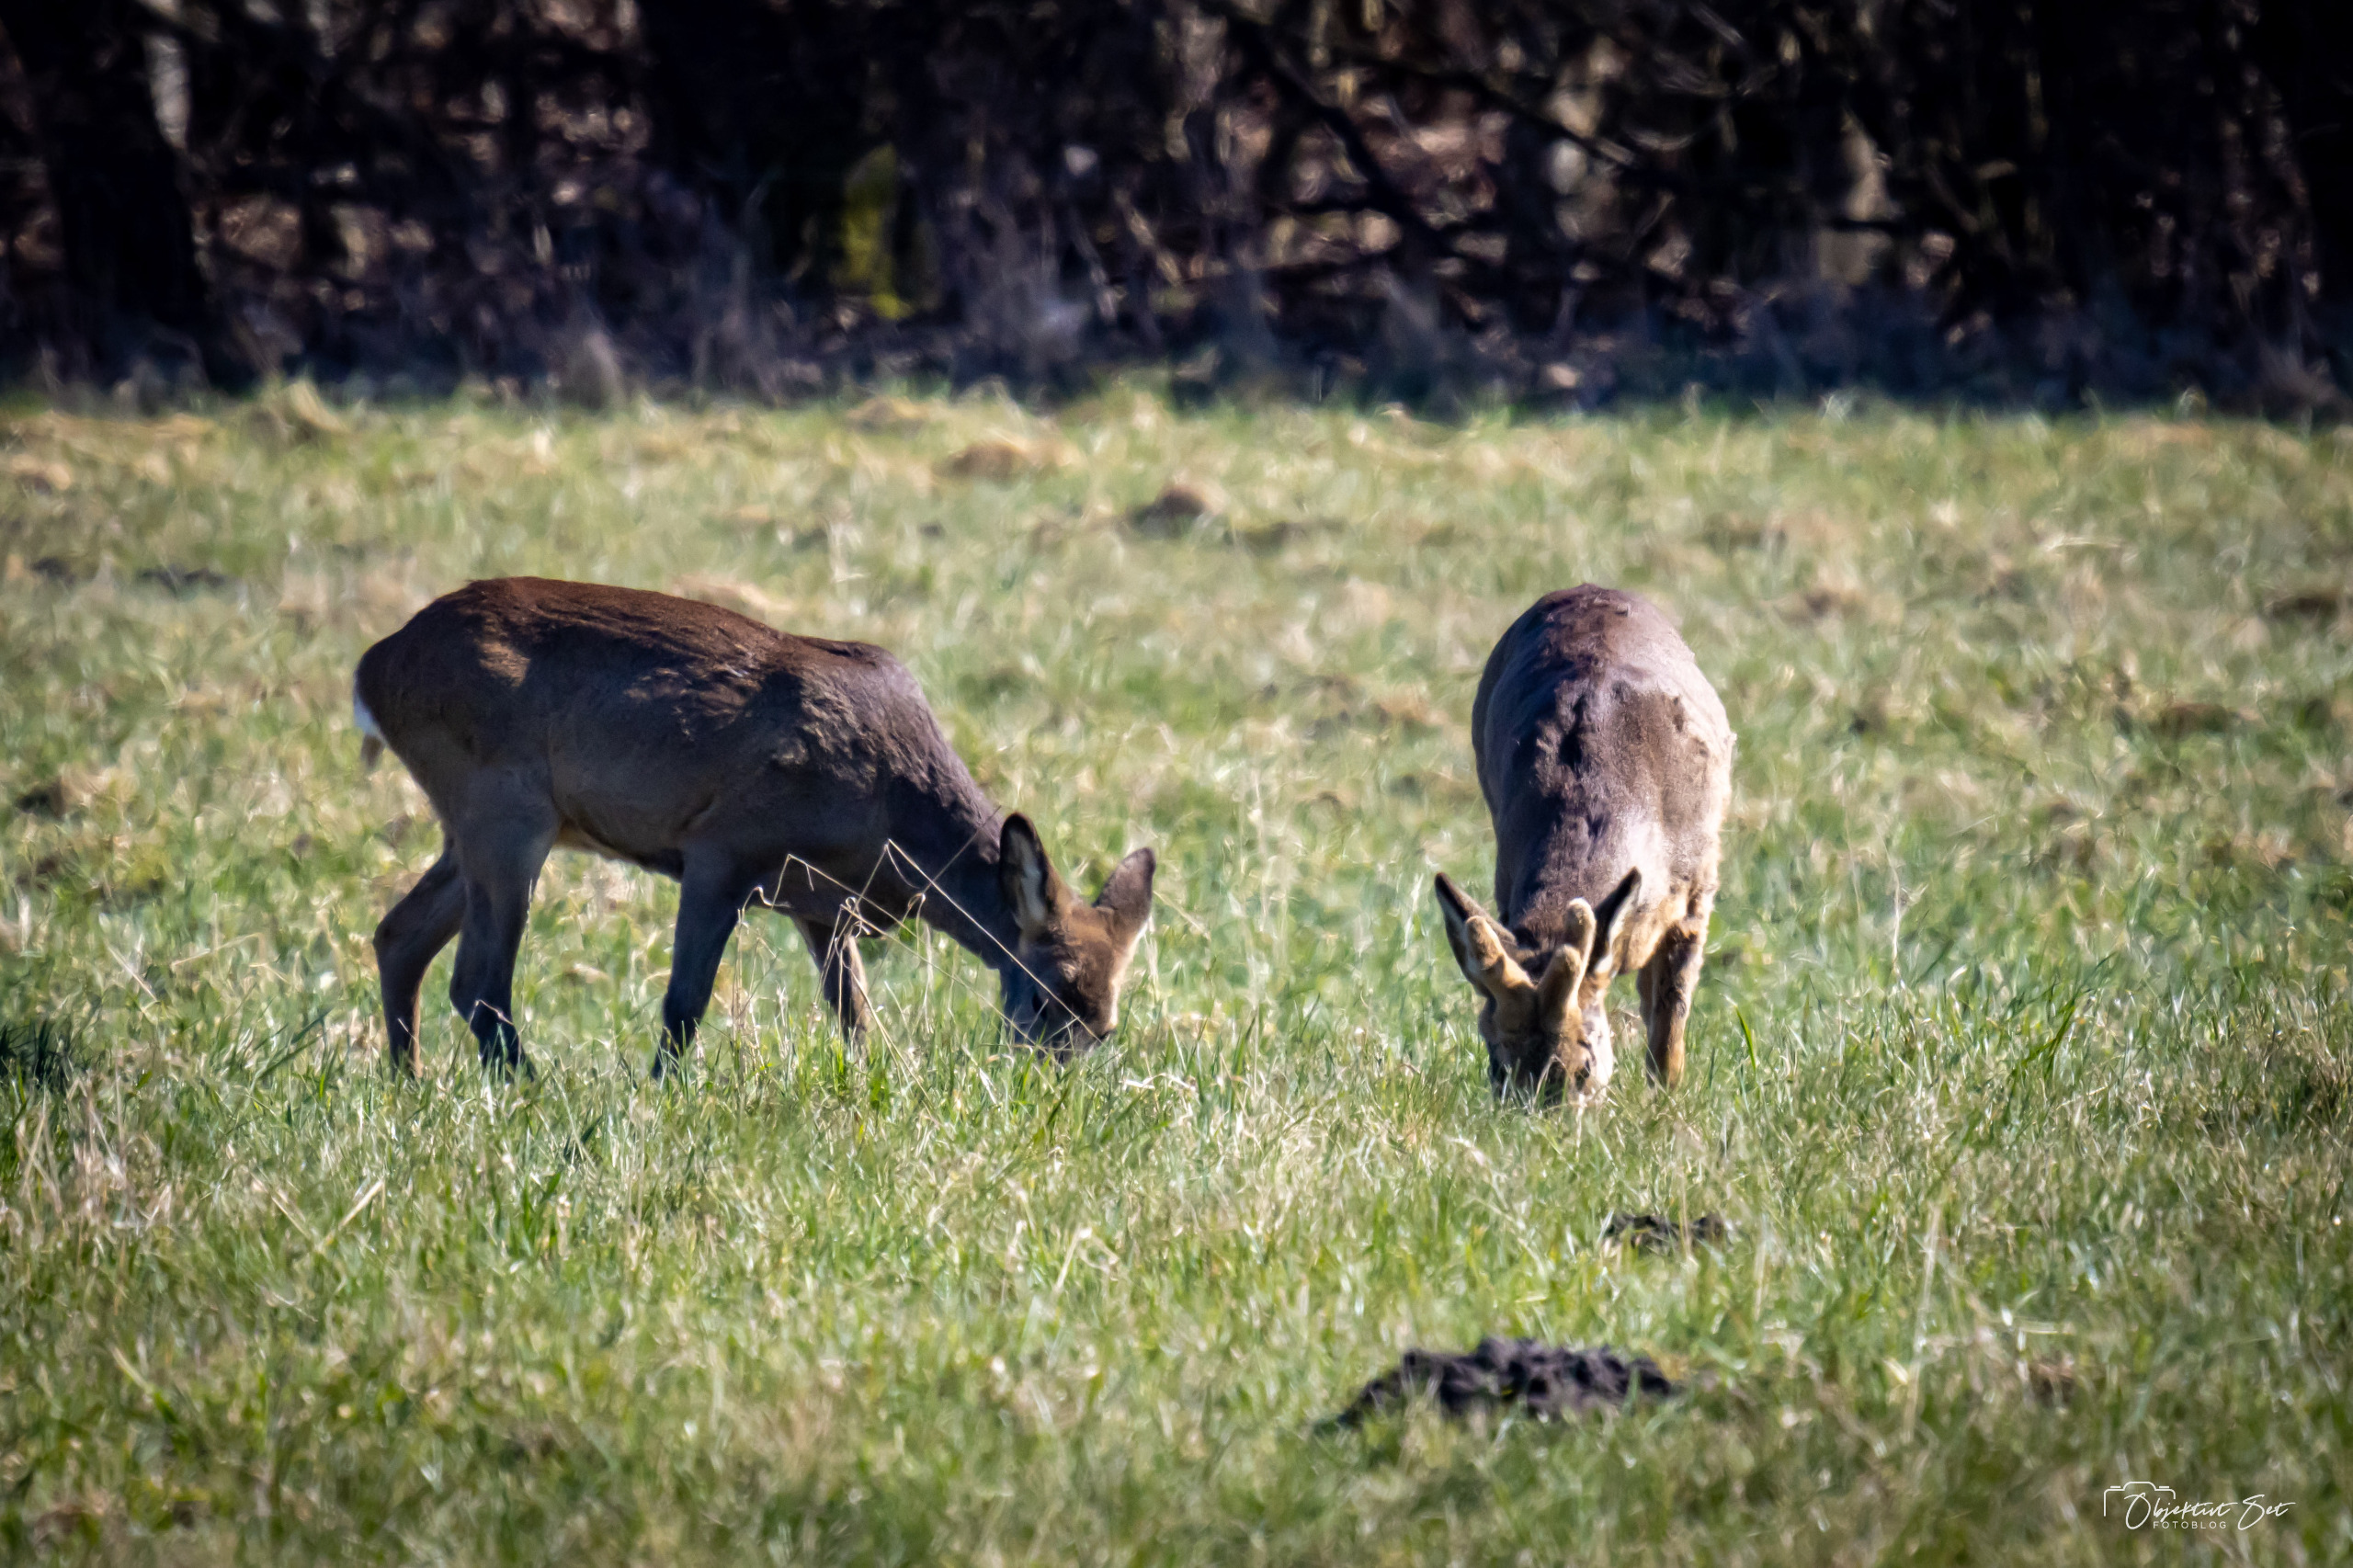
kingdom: Animalia
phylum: Chordata
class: Mammalia
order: Artiodactyla
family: Cervidae
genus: Capreolus
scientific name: Capreolus capreolus
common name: Rådyr
